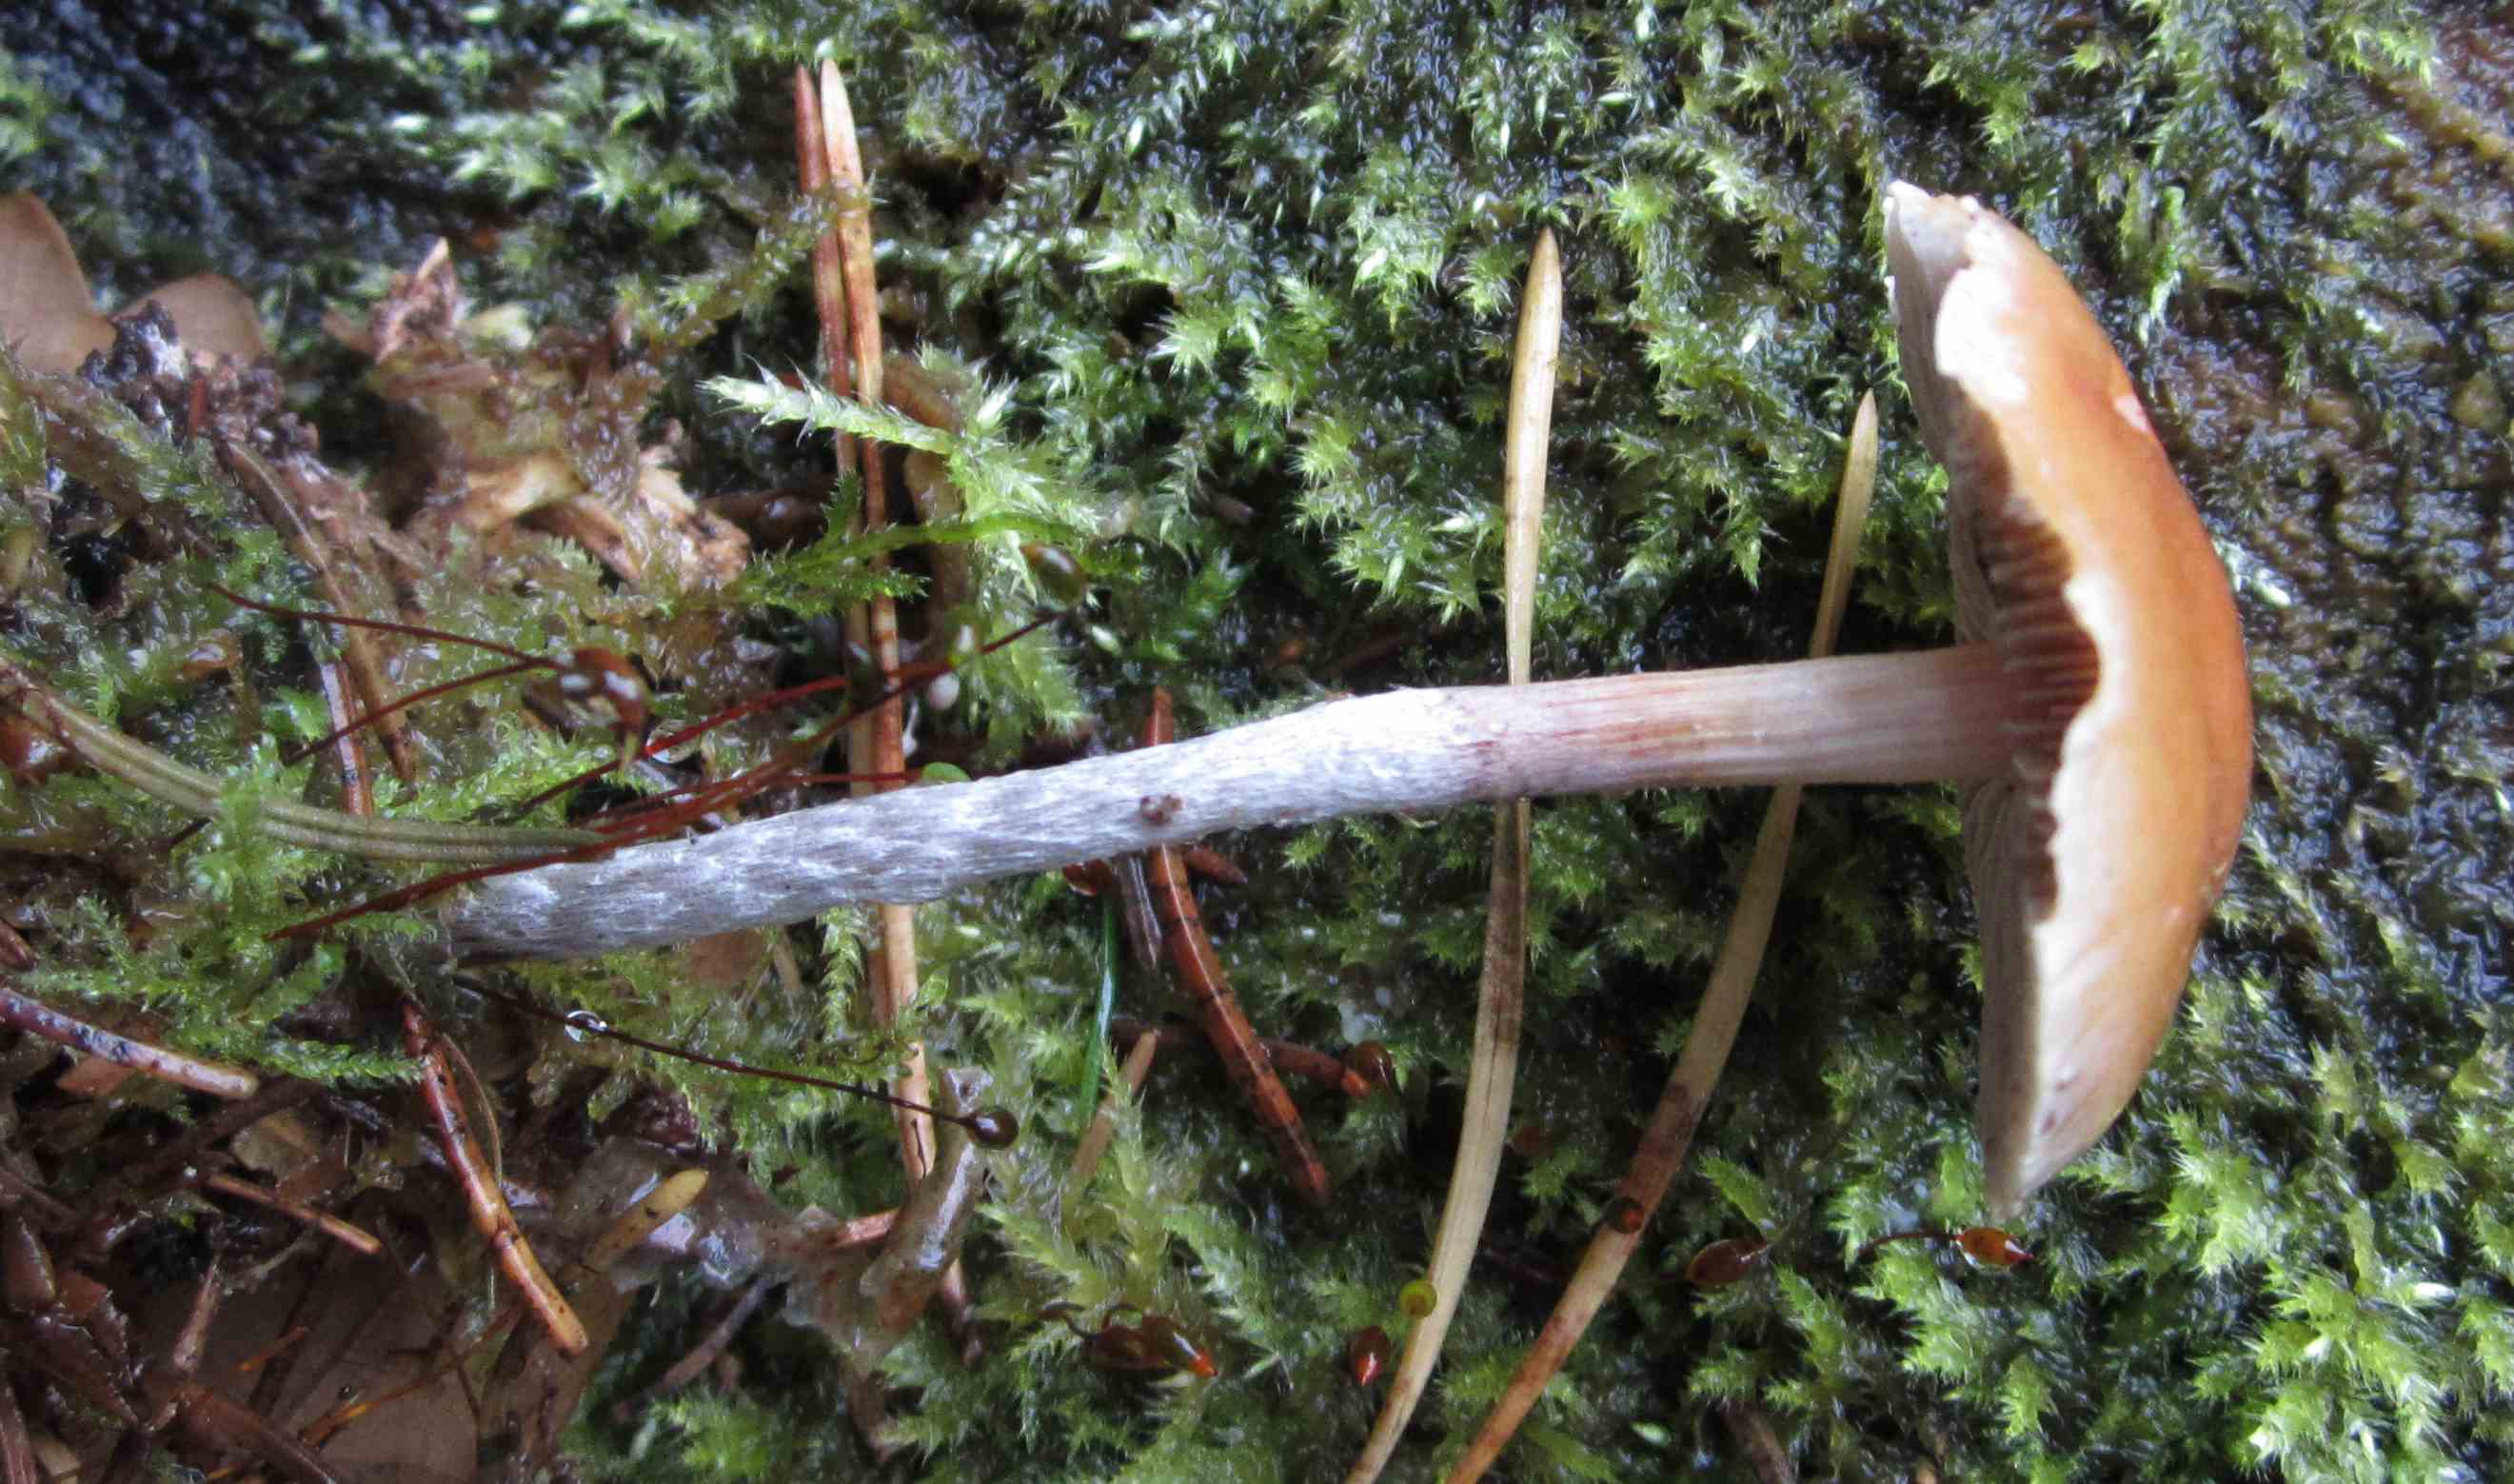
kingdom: Fungi
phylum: Basidiomycota
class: Agaricomycetes
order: Agaricales
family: Strophariaceae
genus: Hypholoma
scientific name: Hypholoma marginatum
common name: enlig svovlhat
